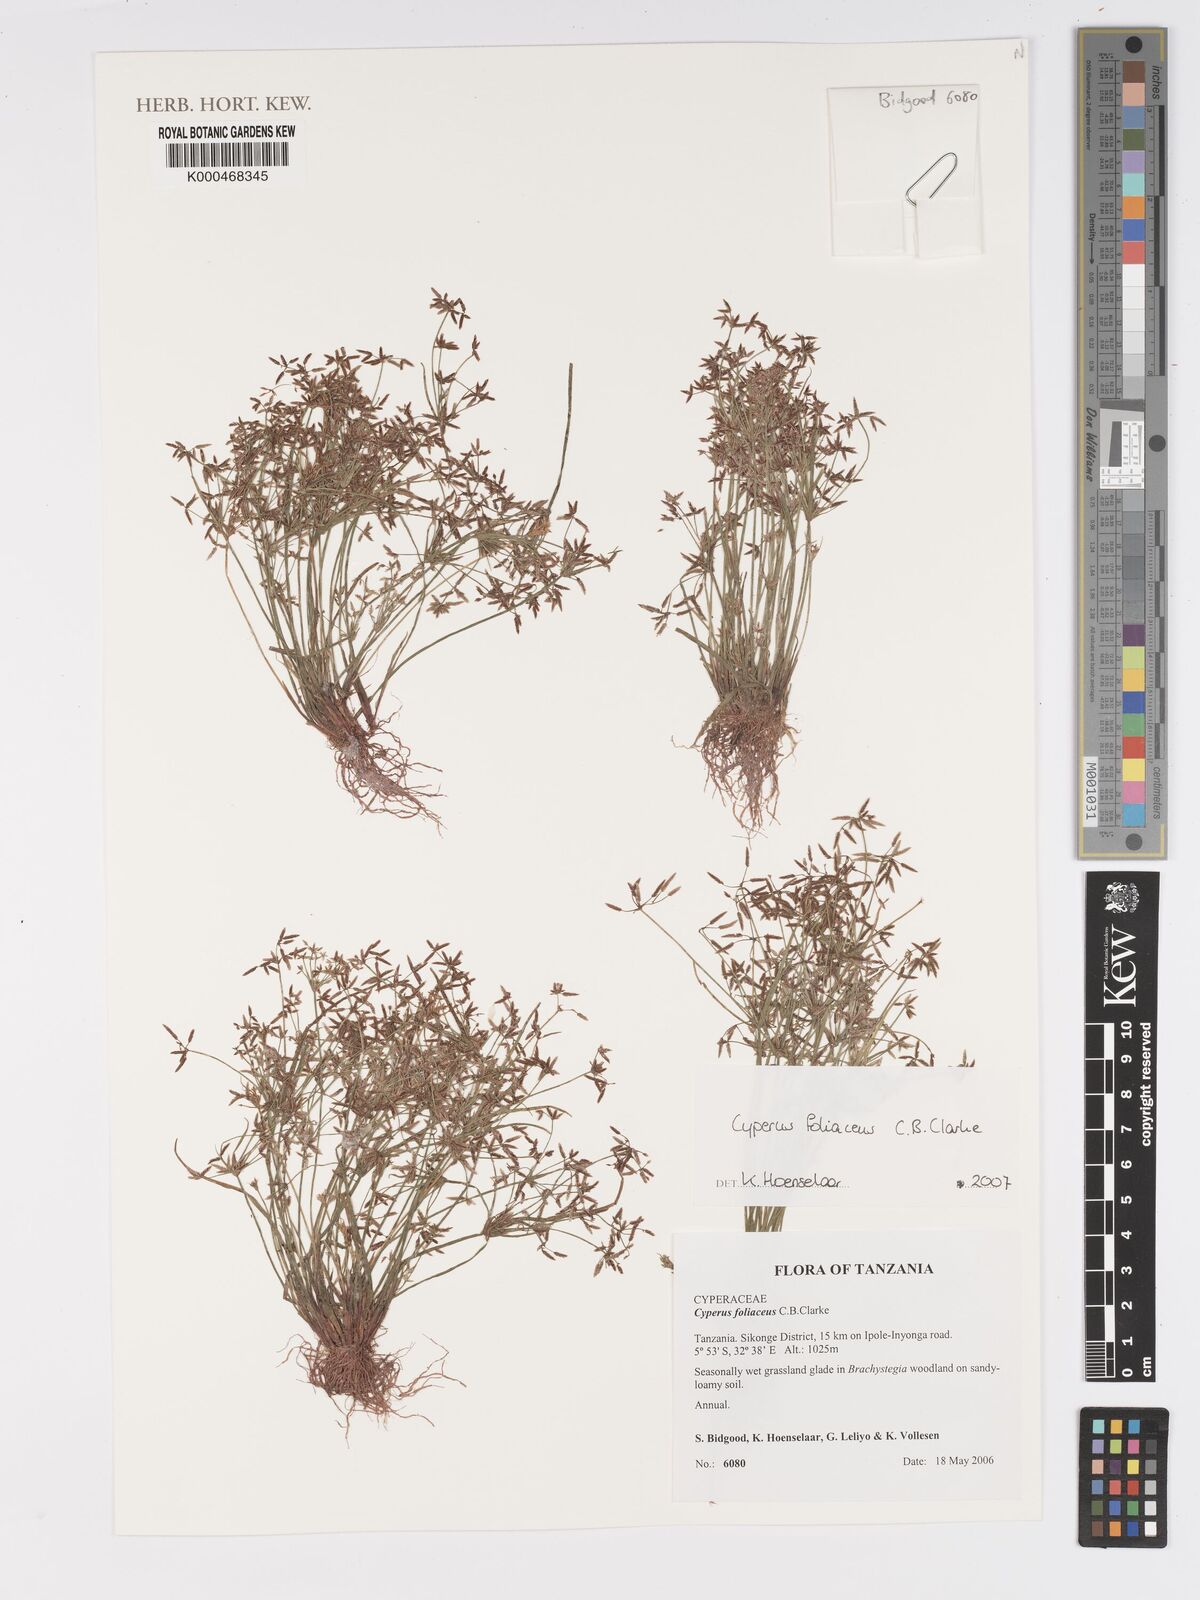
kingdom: Plantae
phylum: Tracheophyta
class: Liliopsida
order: Poales
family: Cyperaceae
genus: Cyperus
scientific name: Cyperus foliaceus
